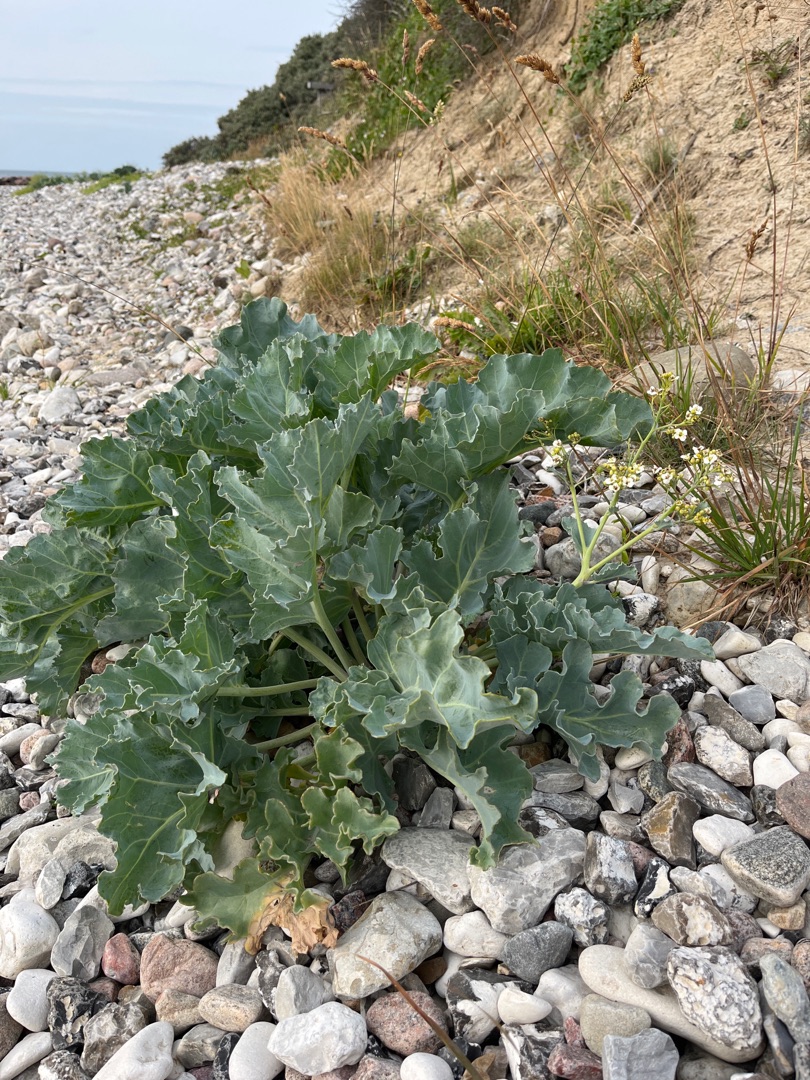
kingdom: Plantae
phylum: Tracheophyta
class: Magnoliopsida
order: Brassicales
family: Brassicaceae
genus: Crambe
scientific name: Crambe maritima
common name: Strandkål
